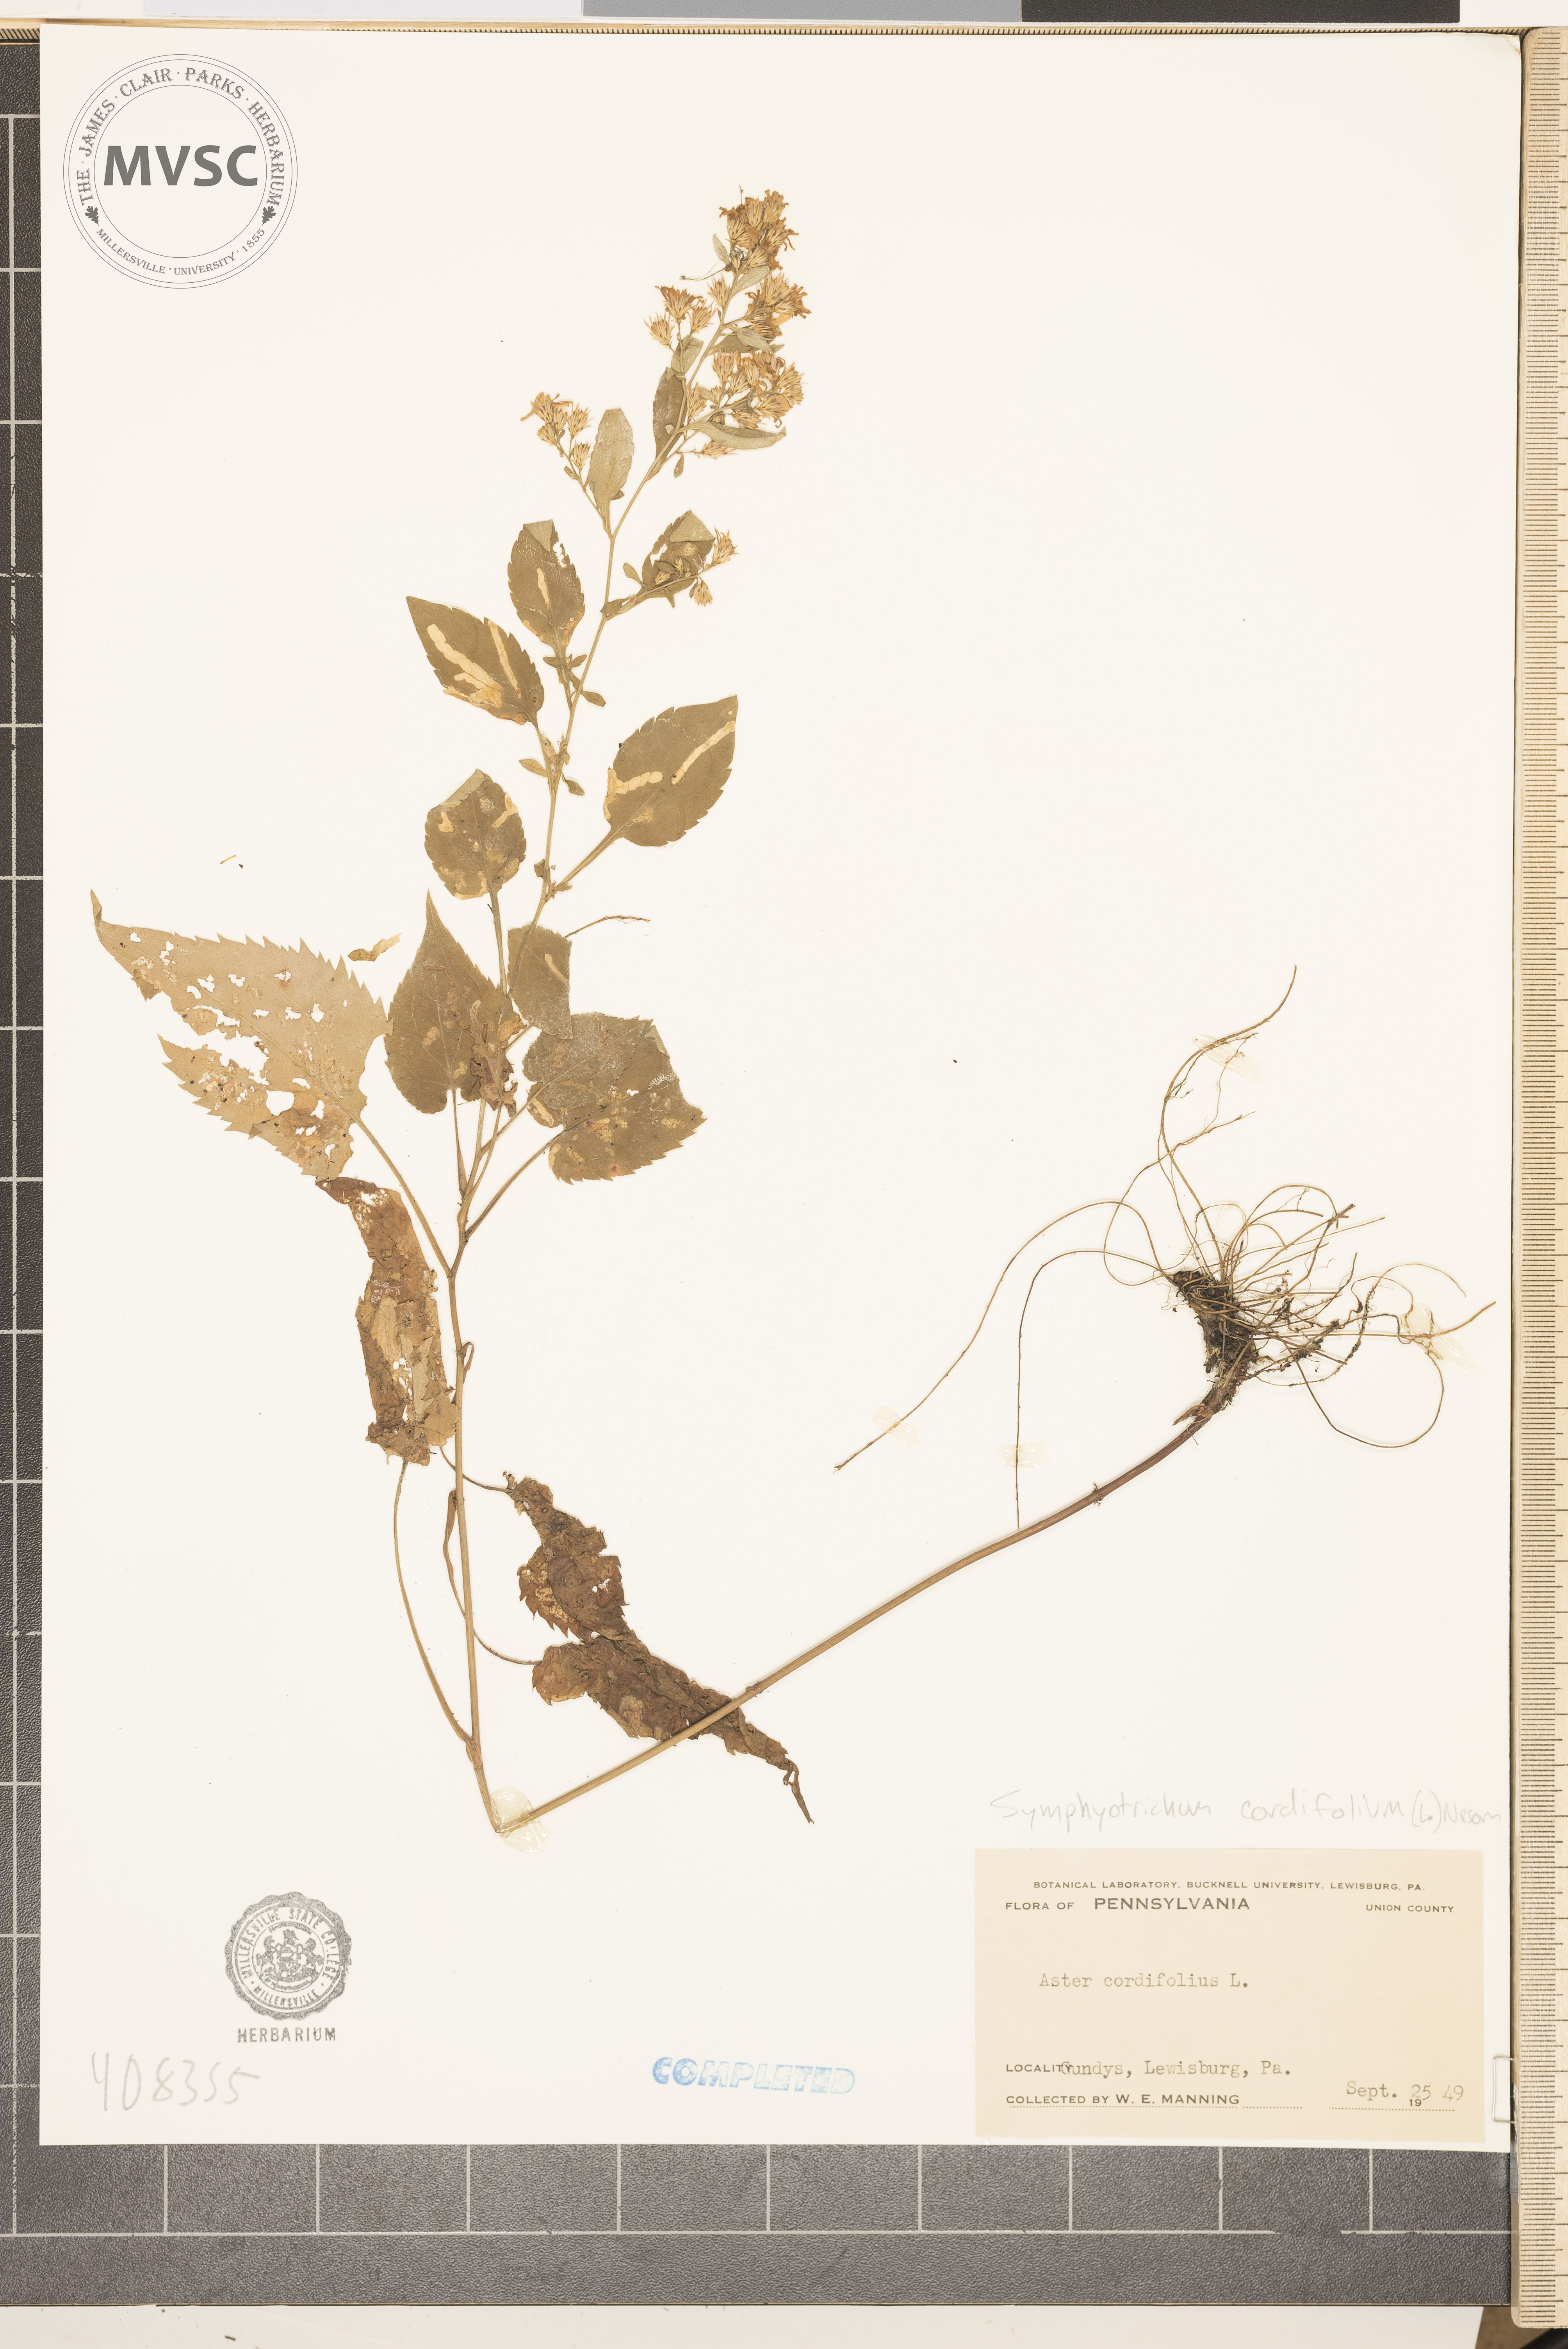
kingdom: Plantae
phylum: Tracheophyta
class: Magnoliopsida
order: Asterales
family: Asteraceae
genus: Symphyotrichum
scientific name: Symphyotrichum cordifolium
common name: Aster
